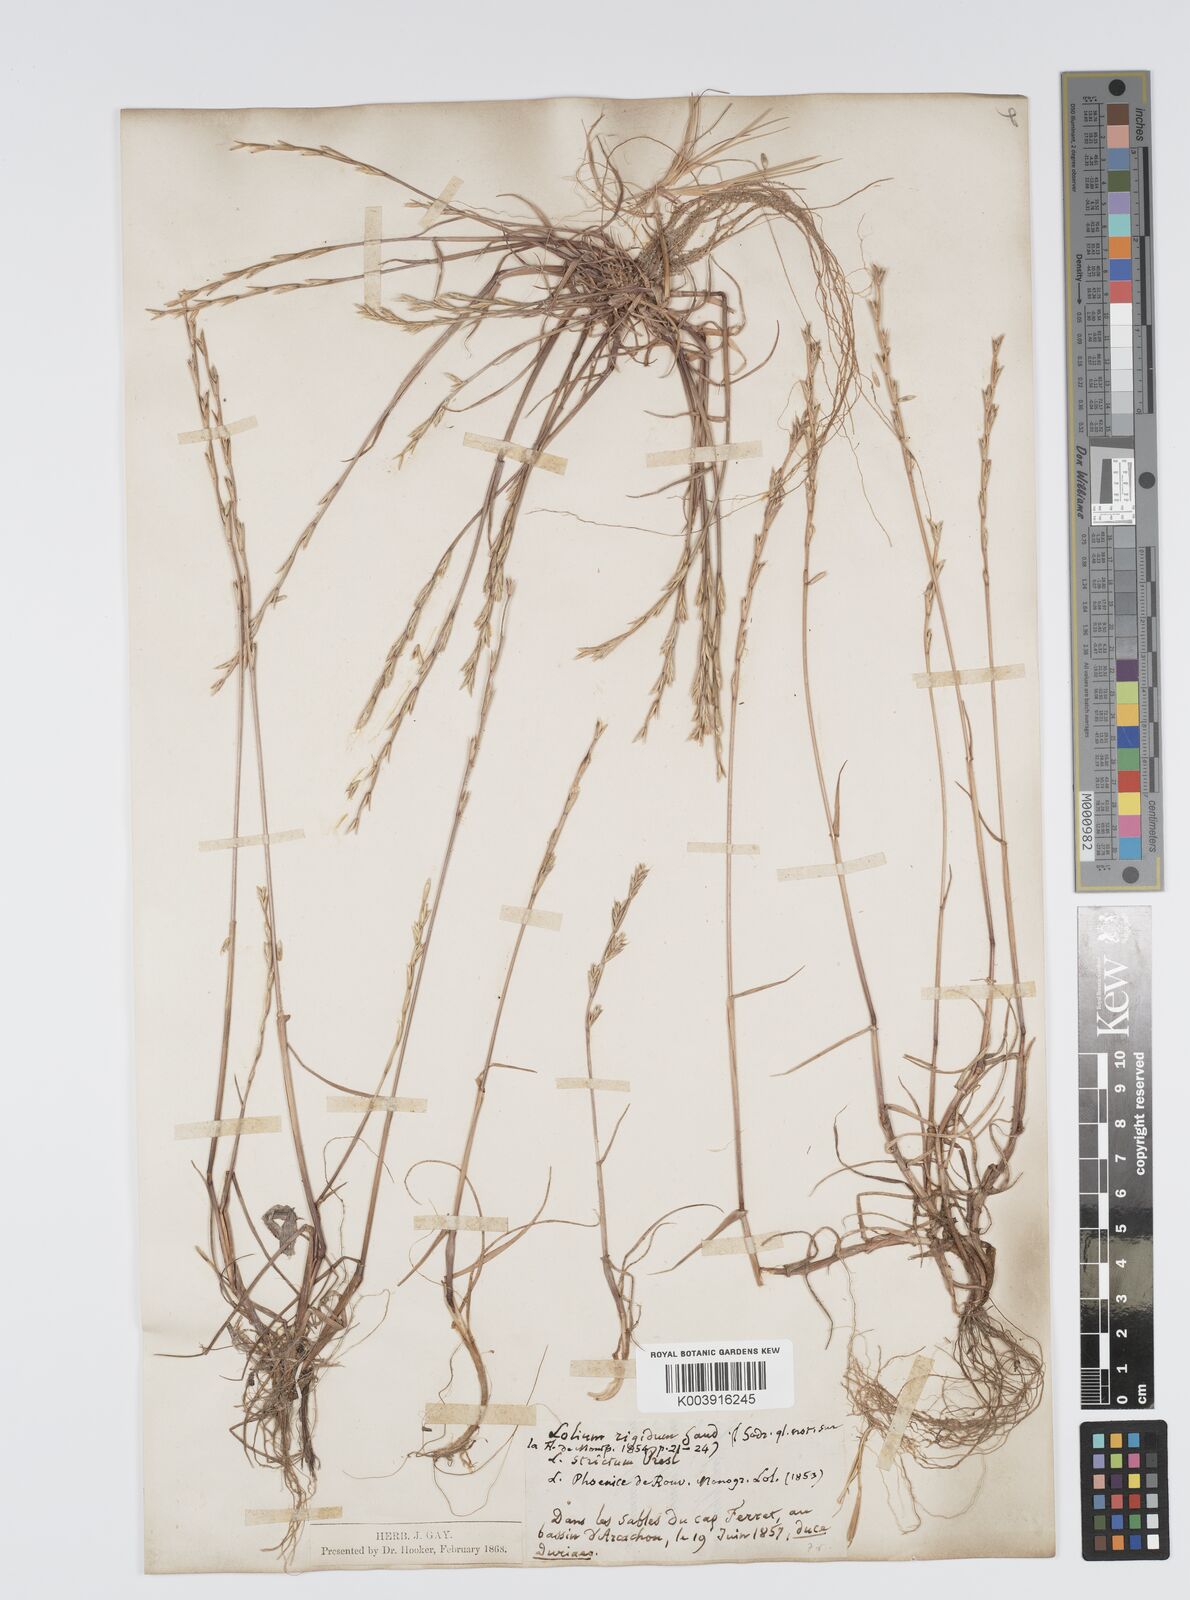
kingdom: Plantae
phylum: Tracheophyta
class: Liliopsida
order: Poales
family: Poaceae
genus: Lolium
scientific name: Lolium rigidum
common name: Wimmera ryegrass
